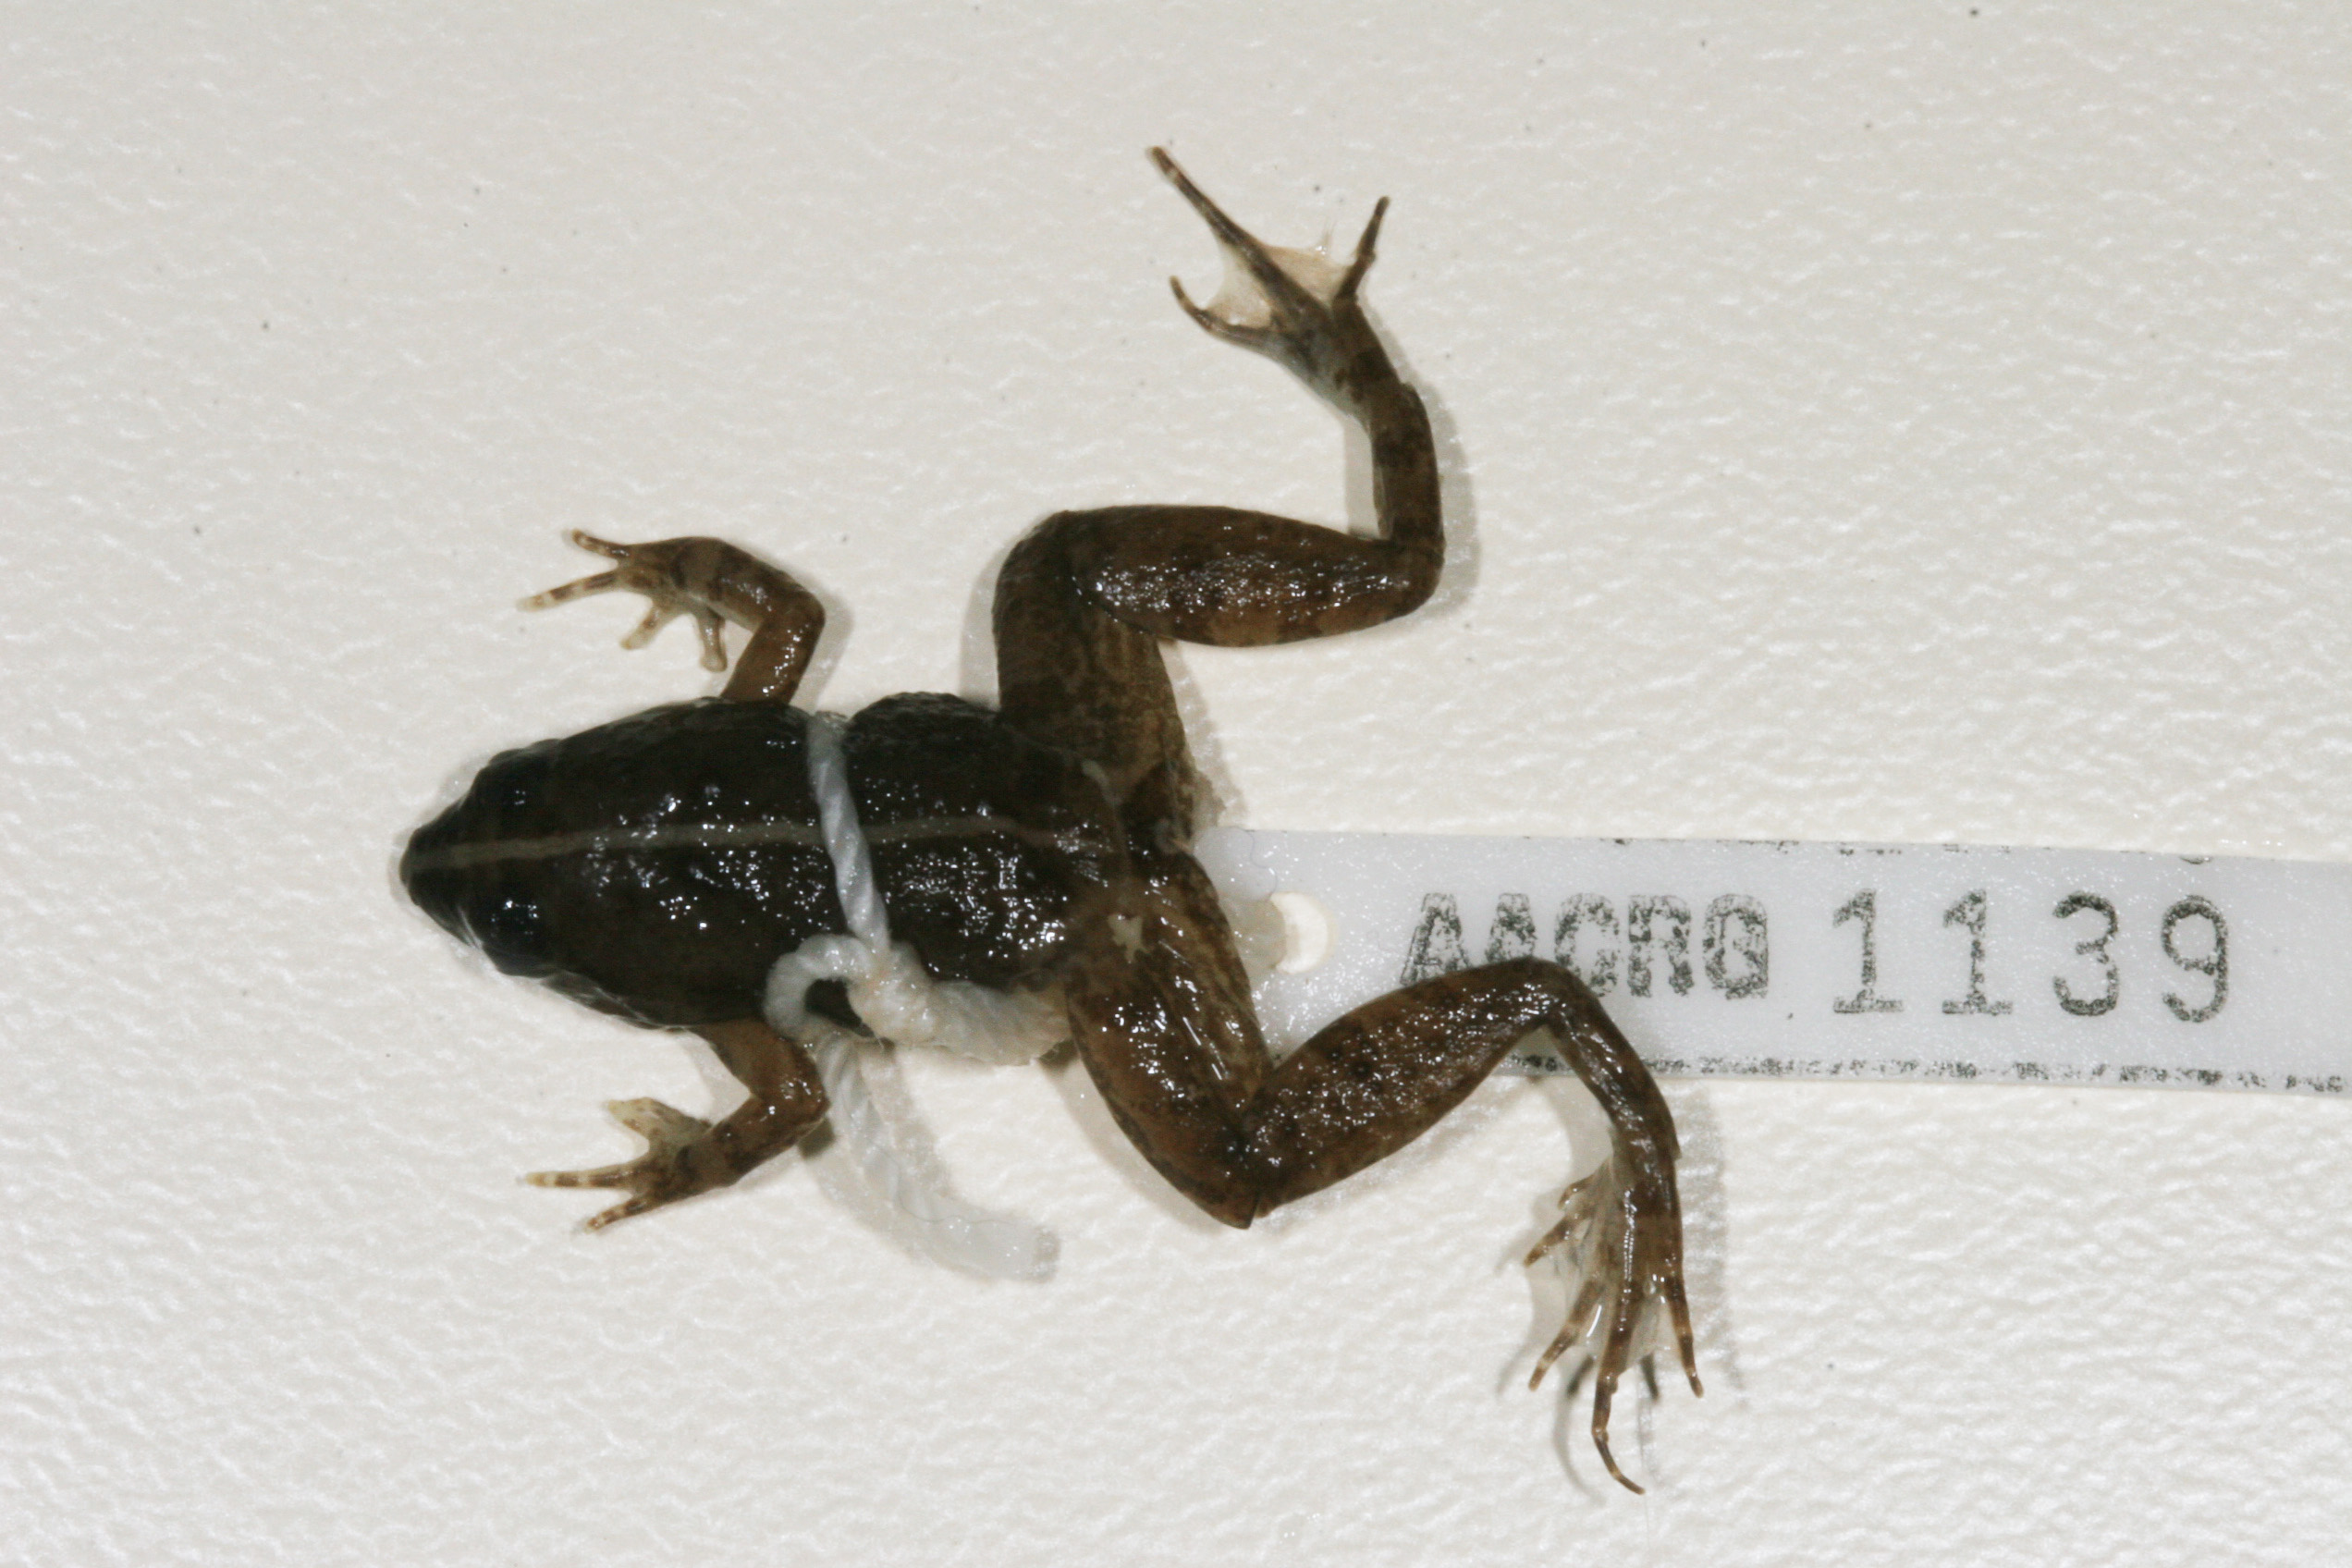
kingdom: Animalia
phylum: Chordata
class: Amphibia
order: Anura
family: Phrynobatrachidae
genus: Phrynobatrachus
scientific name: Phrynobatrachus natalensis
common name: Snoring puddle frog
